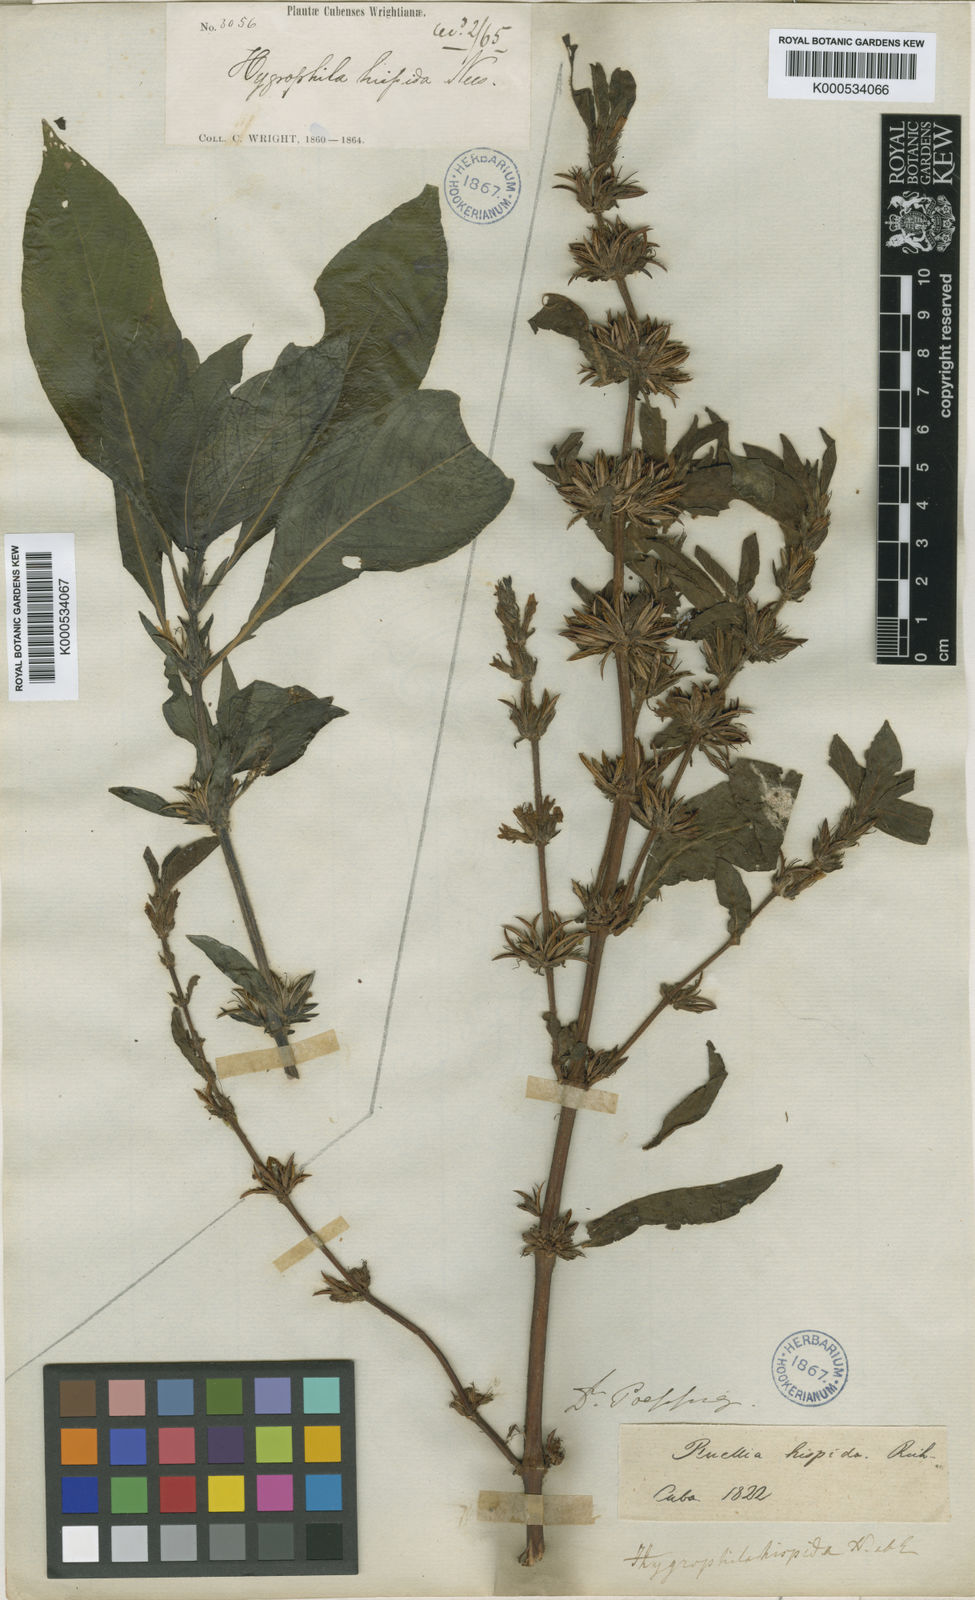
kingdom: Plantae
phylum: Tracheophyta
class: Magnoliopsida
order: Lamiales
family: Acanthaceae
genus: Hygrophila
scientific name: Hygrophila
